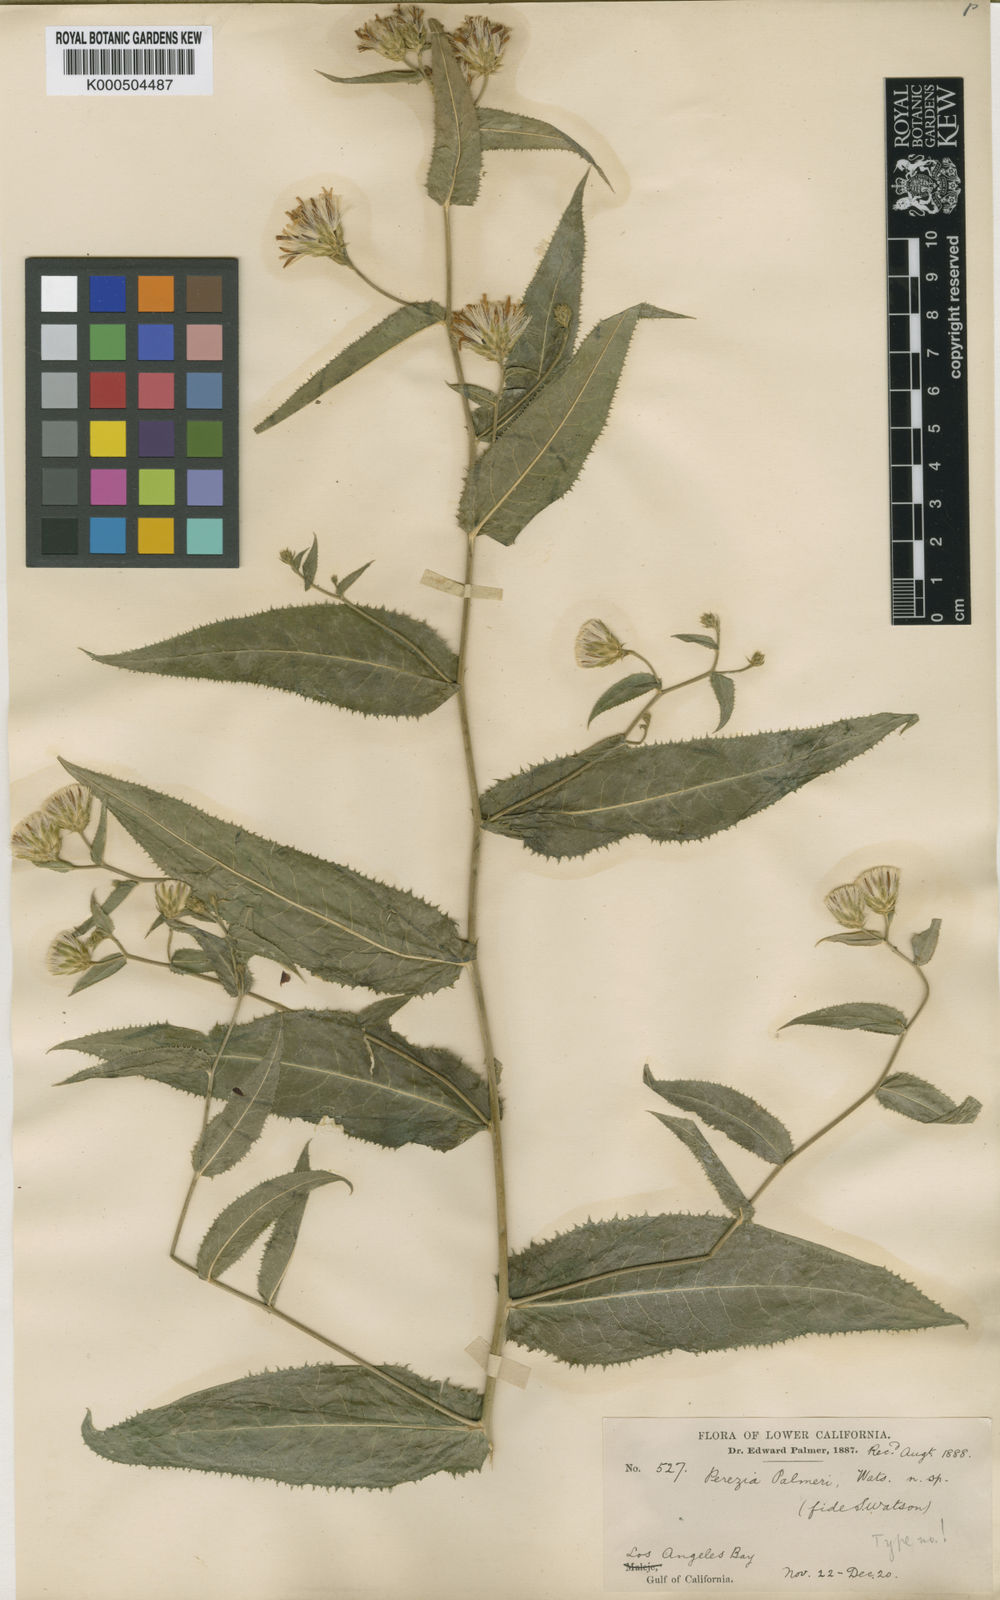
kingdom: Plantae
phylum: Tracheophyta
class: Magnoliopsida
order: Asterales
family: Asteraceae
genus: Acourtia
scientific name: Acourtia palmeri
